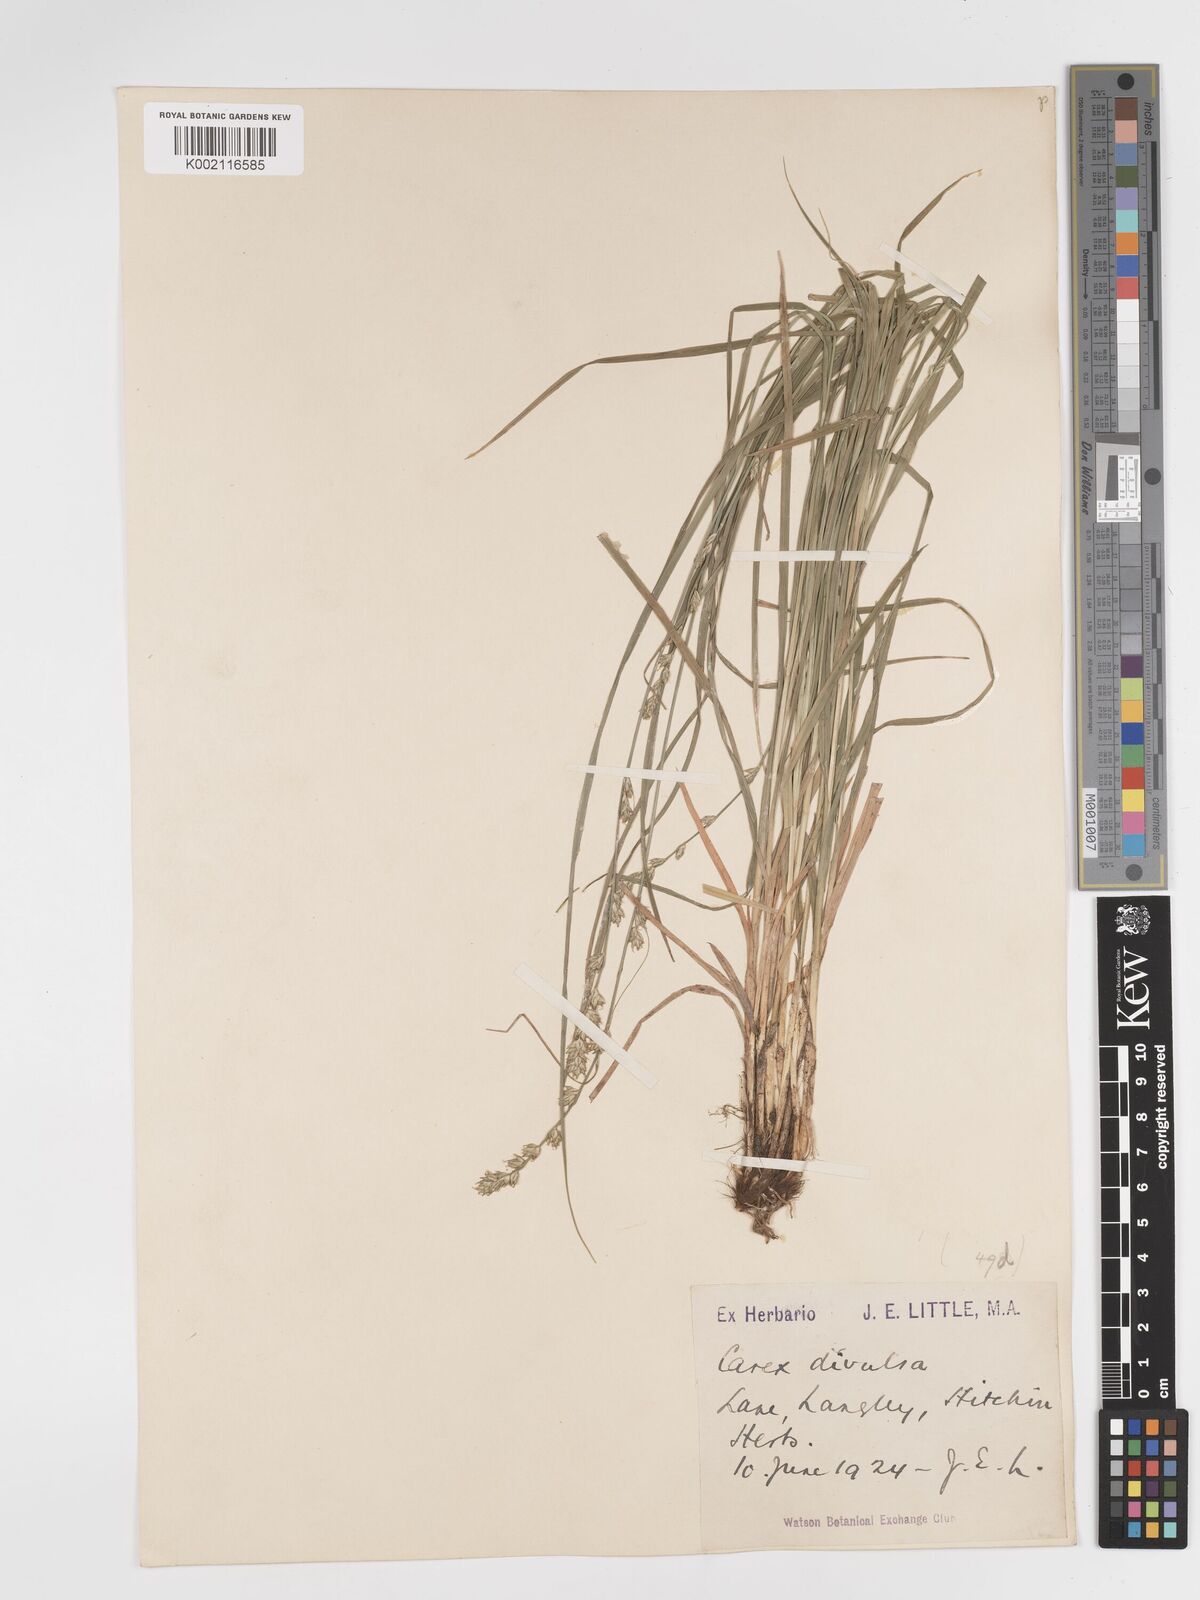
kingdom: Plantae
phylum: Tracheophyta
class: Liliopsida
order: Poales
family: Cyperaceae
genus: Carex
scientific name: Carex divulsa
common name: Grassland sedge
